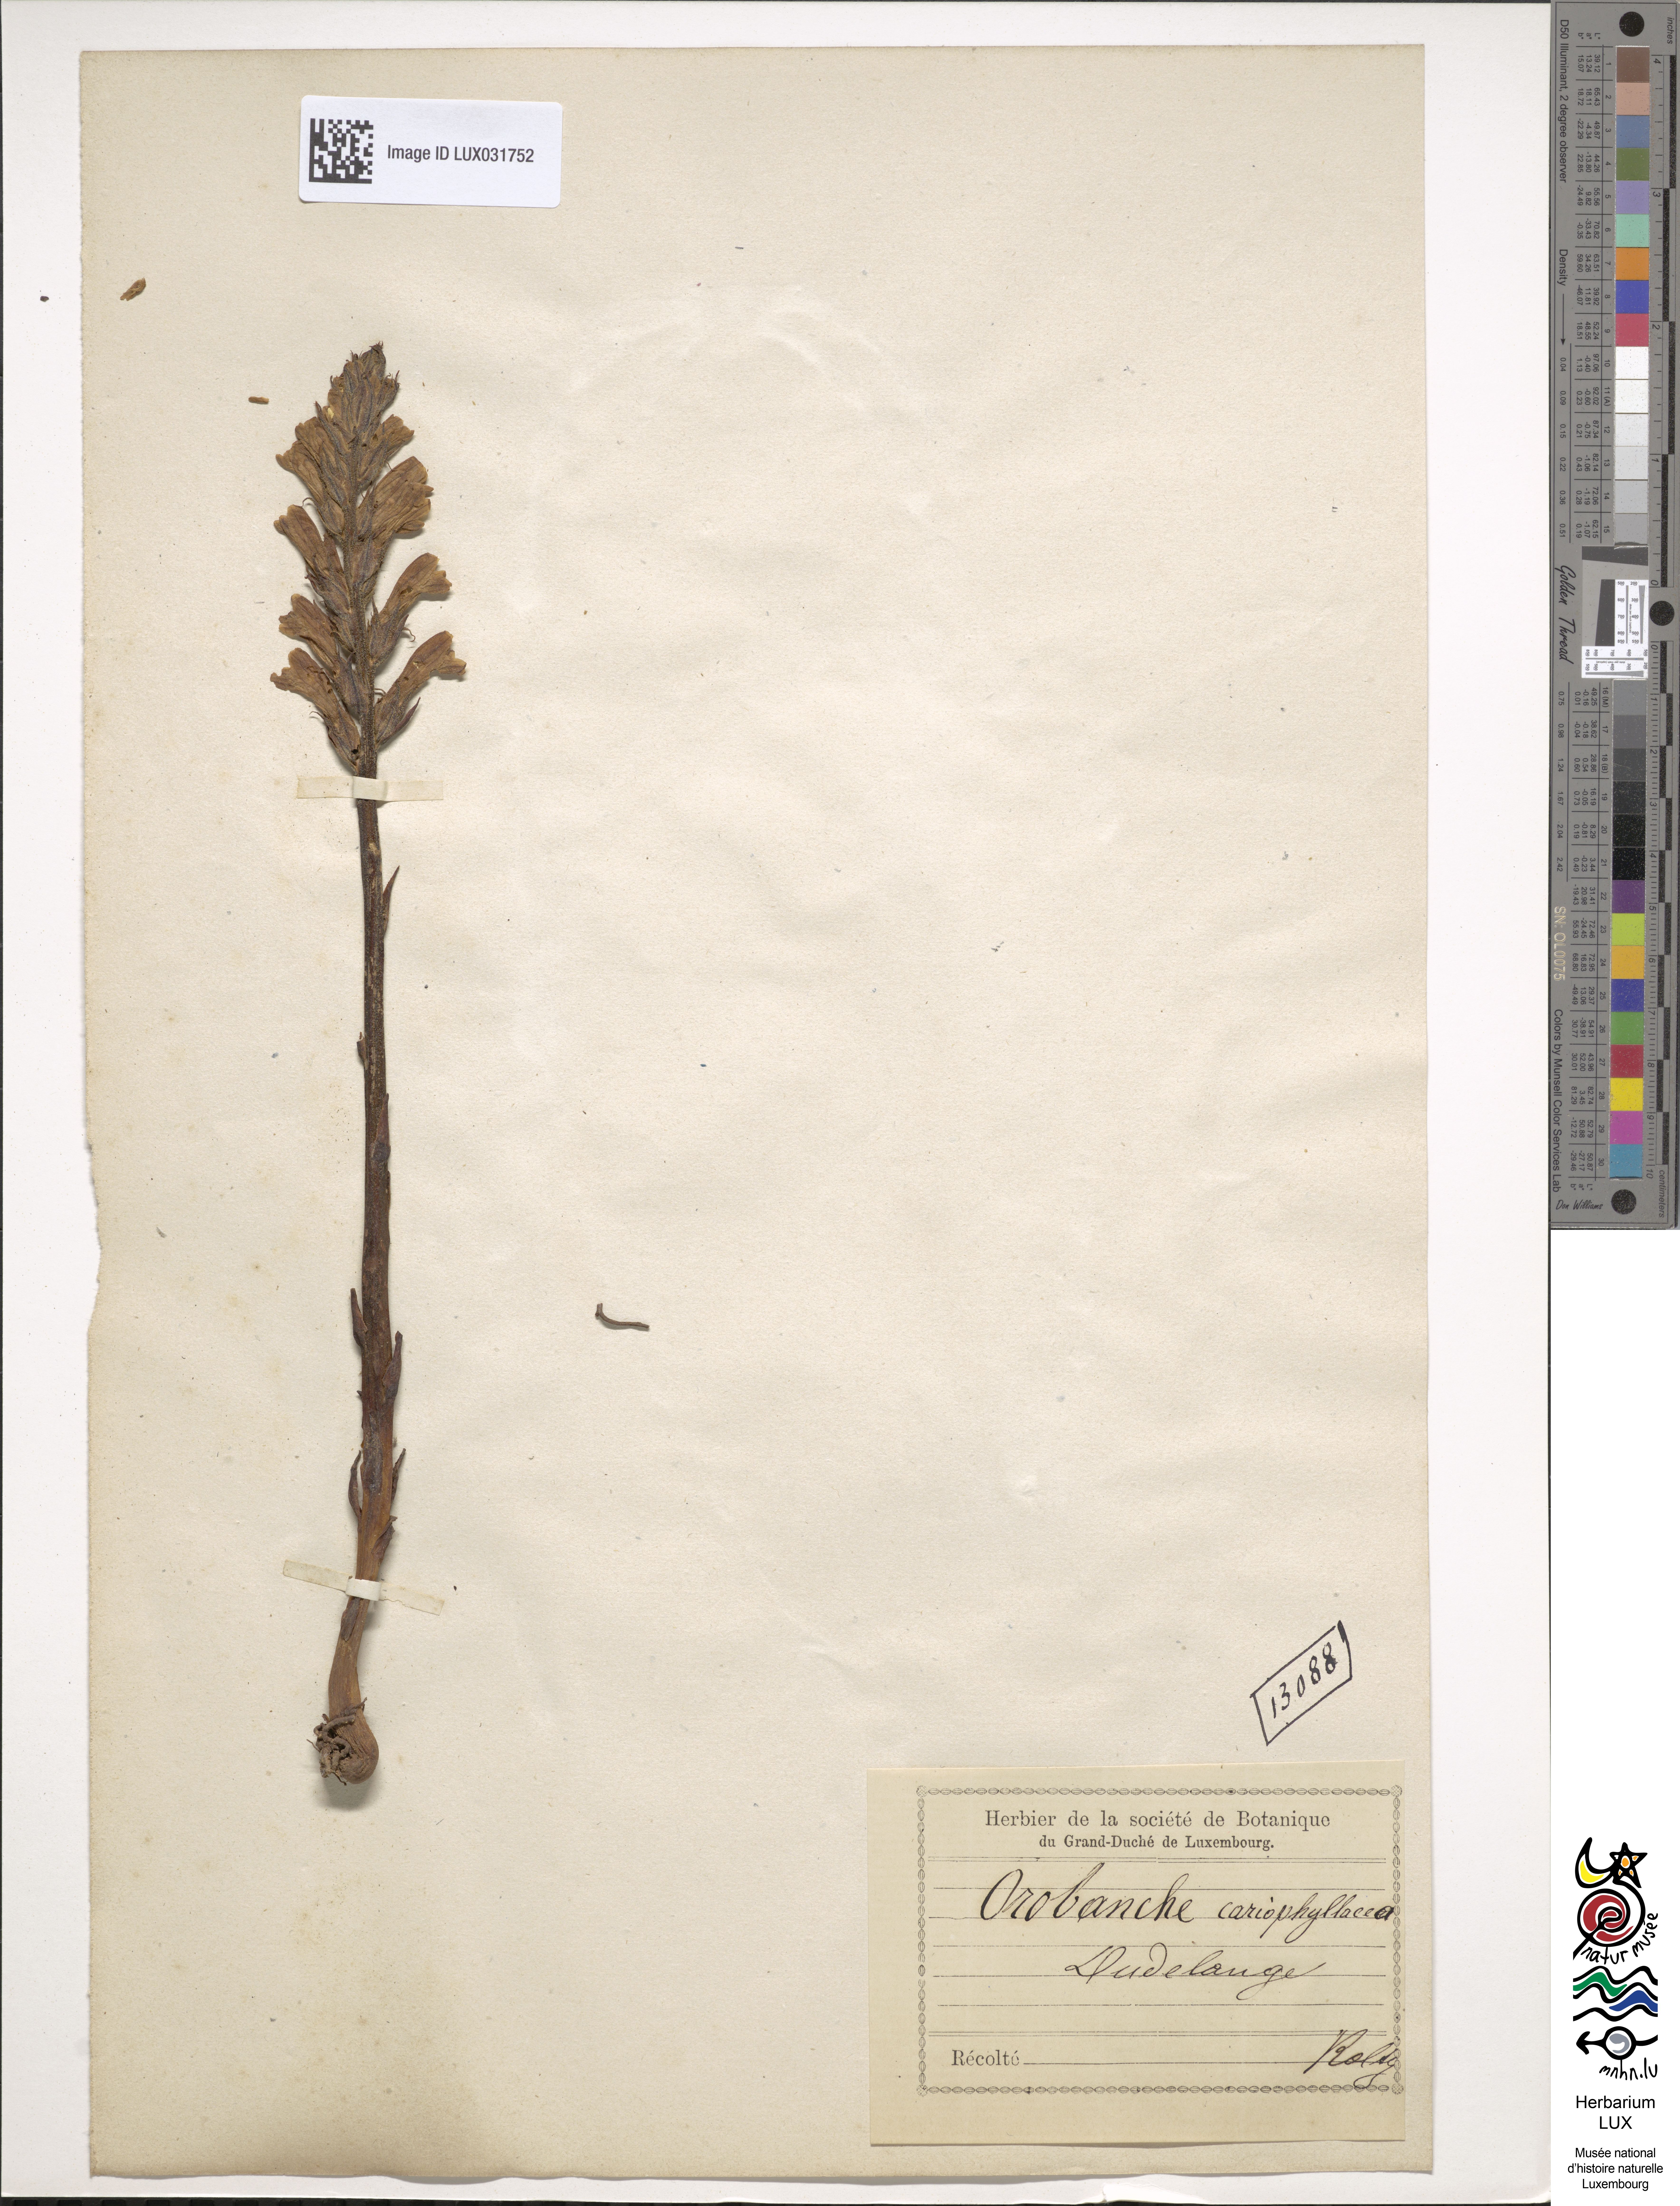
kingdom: Plantae
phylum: Tracheophyta
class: Magnoliopsida
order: Lamiales
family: Orobanchaceae
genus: Orobanche
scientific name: Orobanche caryophyllacea
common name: Bedstraw broomrape
